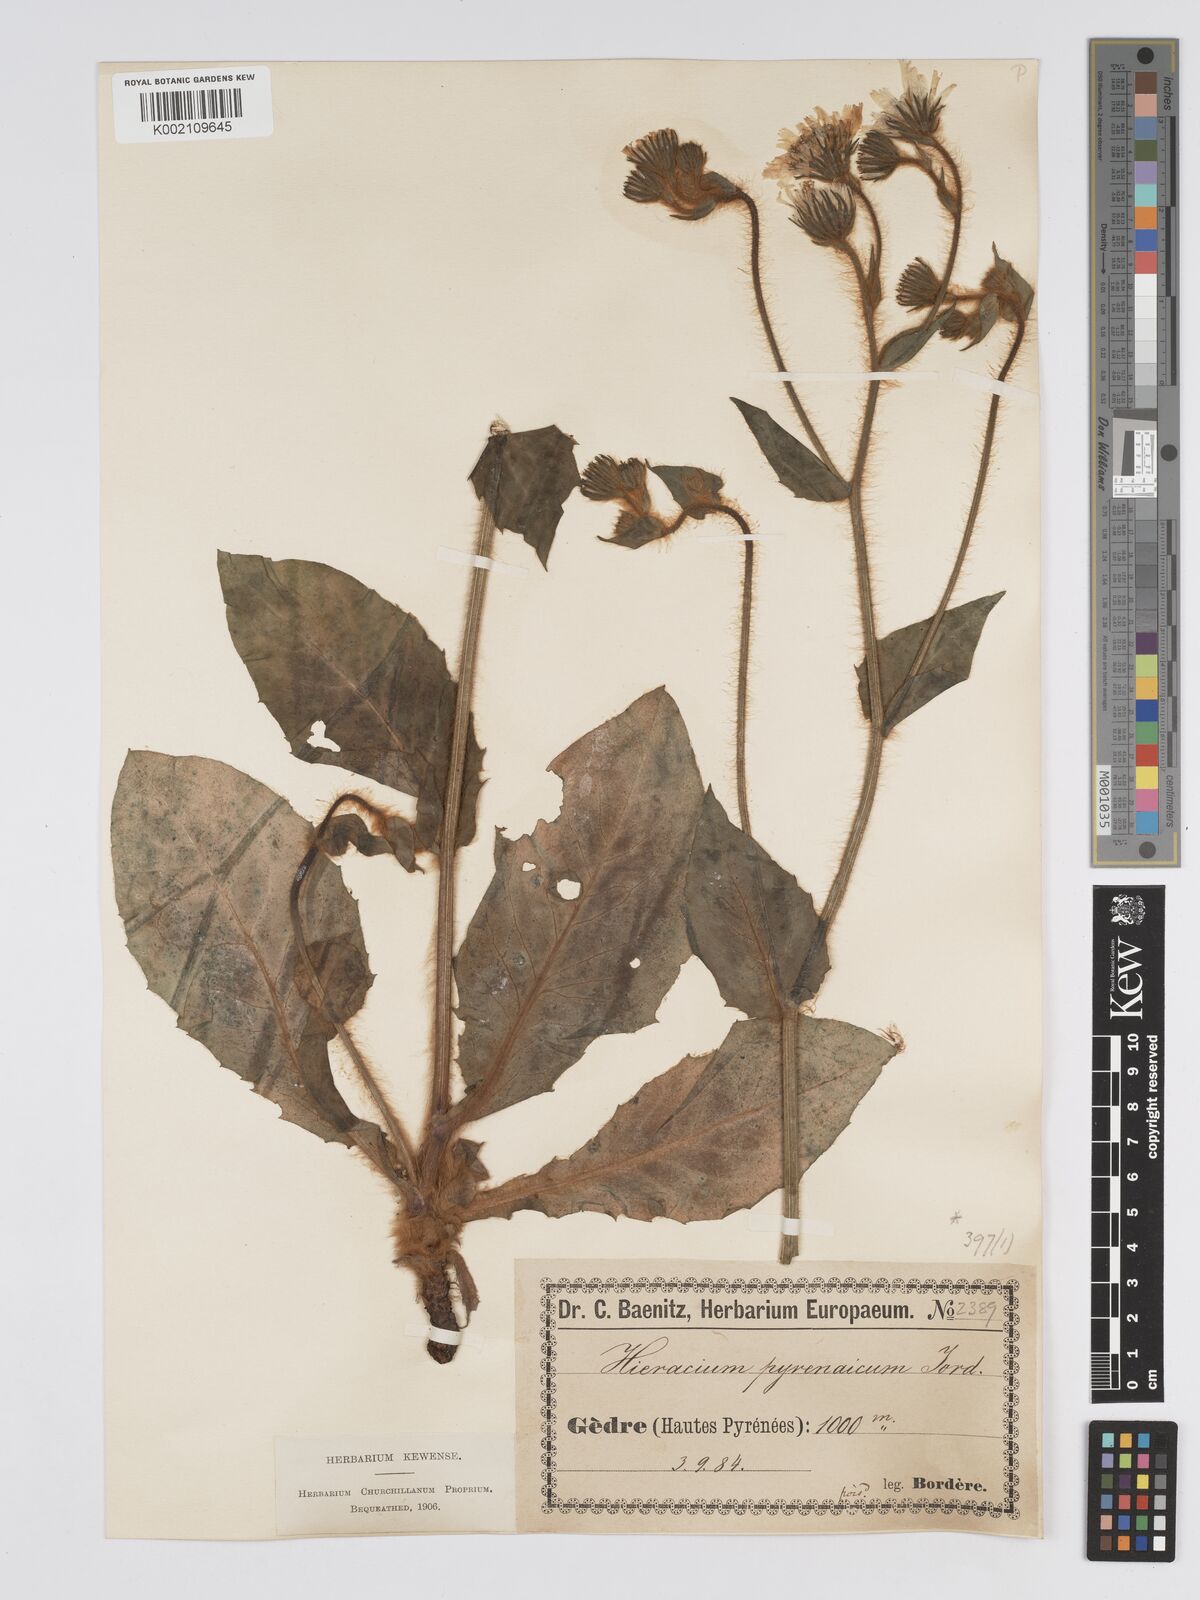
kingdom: Plantae
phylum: Tracheophyta
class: Magnoliopsida
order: Asterales
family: Asteraceae
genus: Hieracium
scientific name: Hieracium nobile
